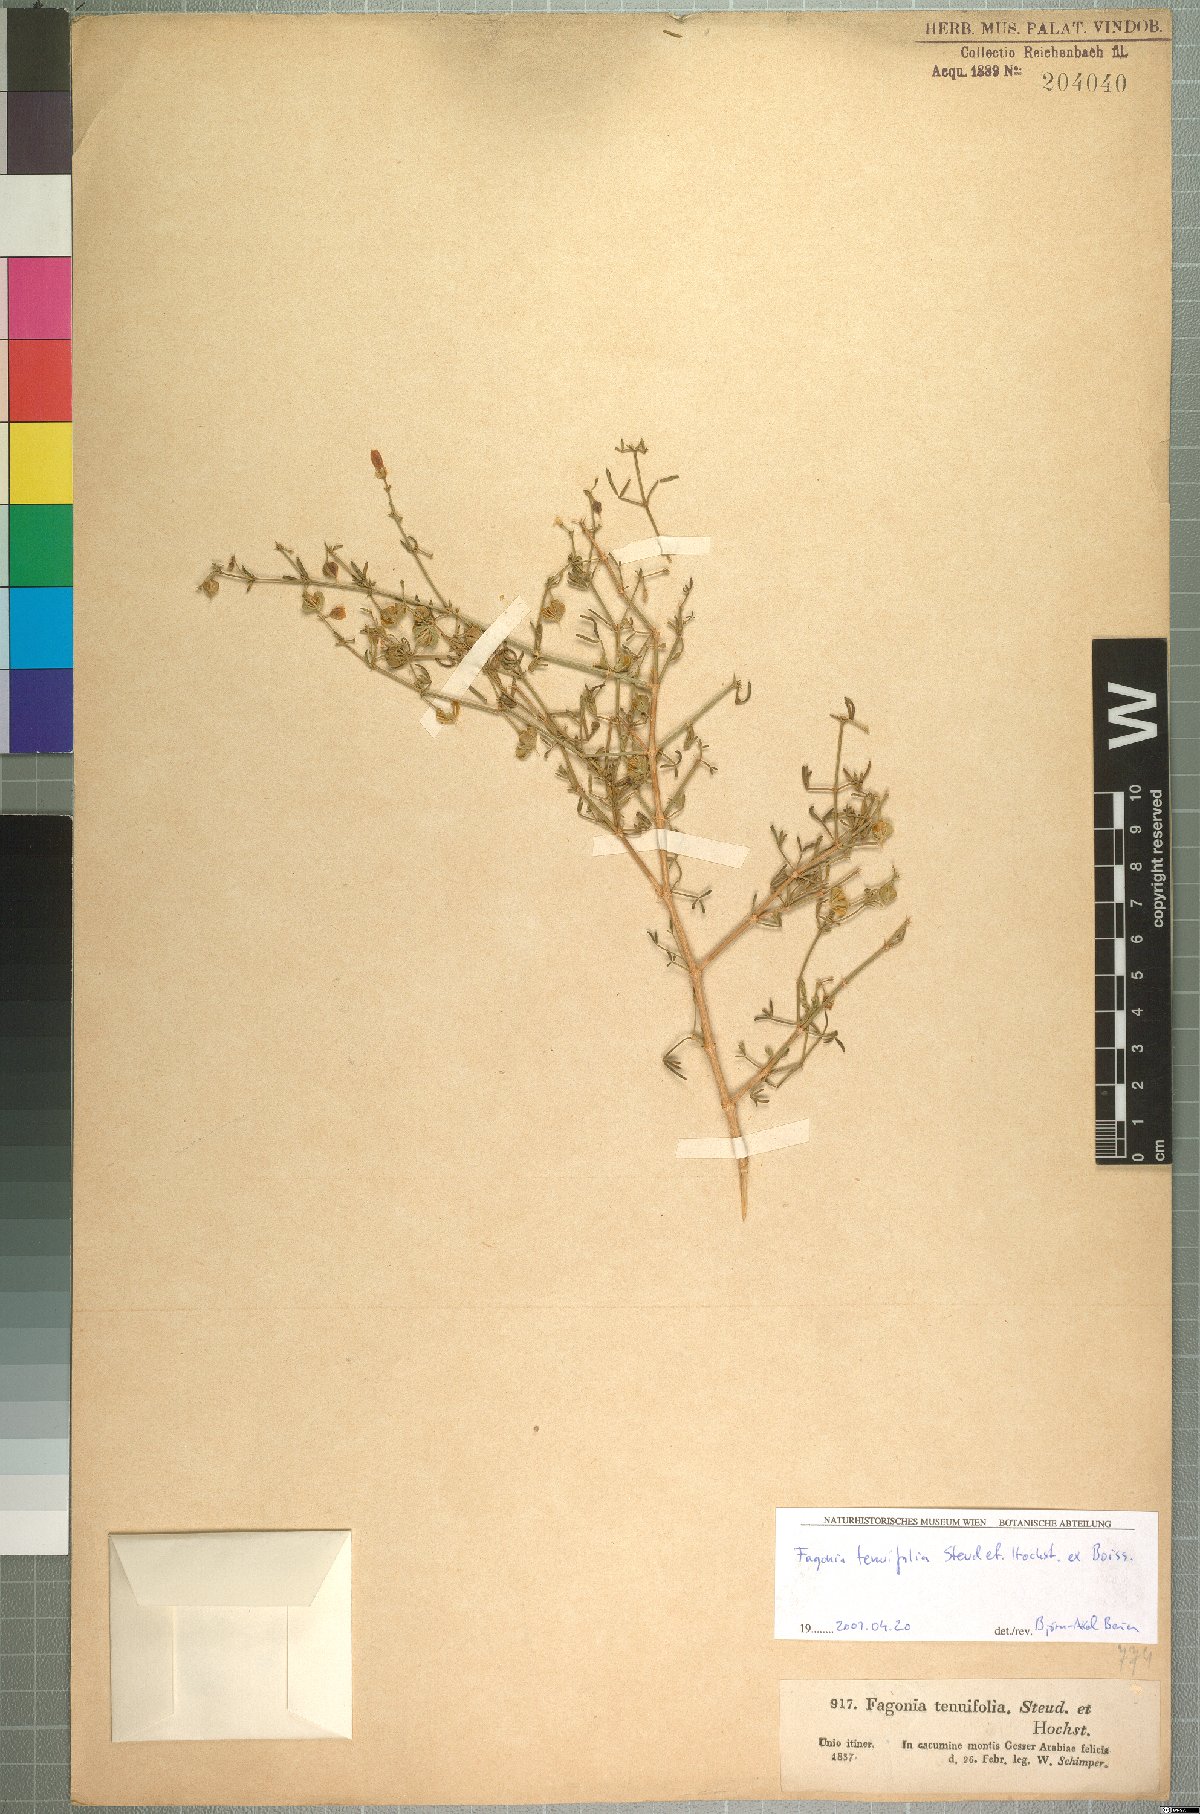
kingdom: Plantae
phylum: Tracheophyta
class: Magnoliopsida
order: Zygophyllales
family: Zygophyllaceae
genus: Fagonia
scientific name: Fagonia orientalis
